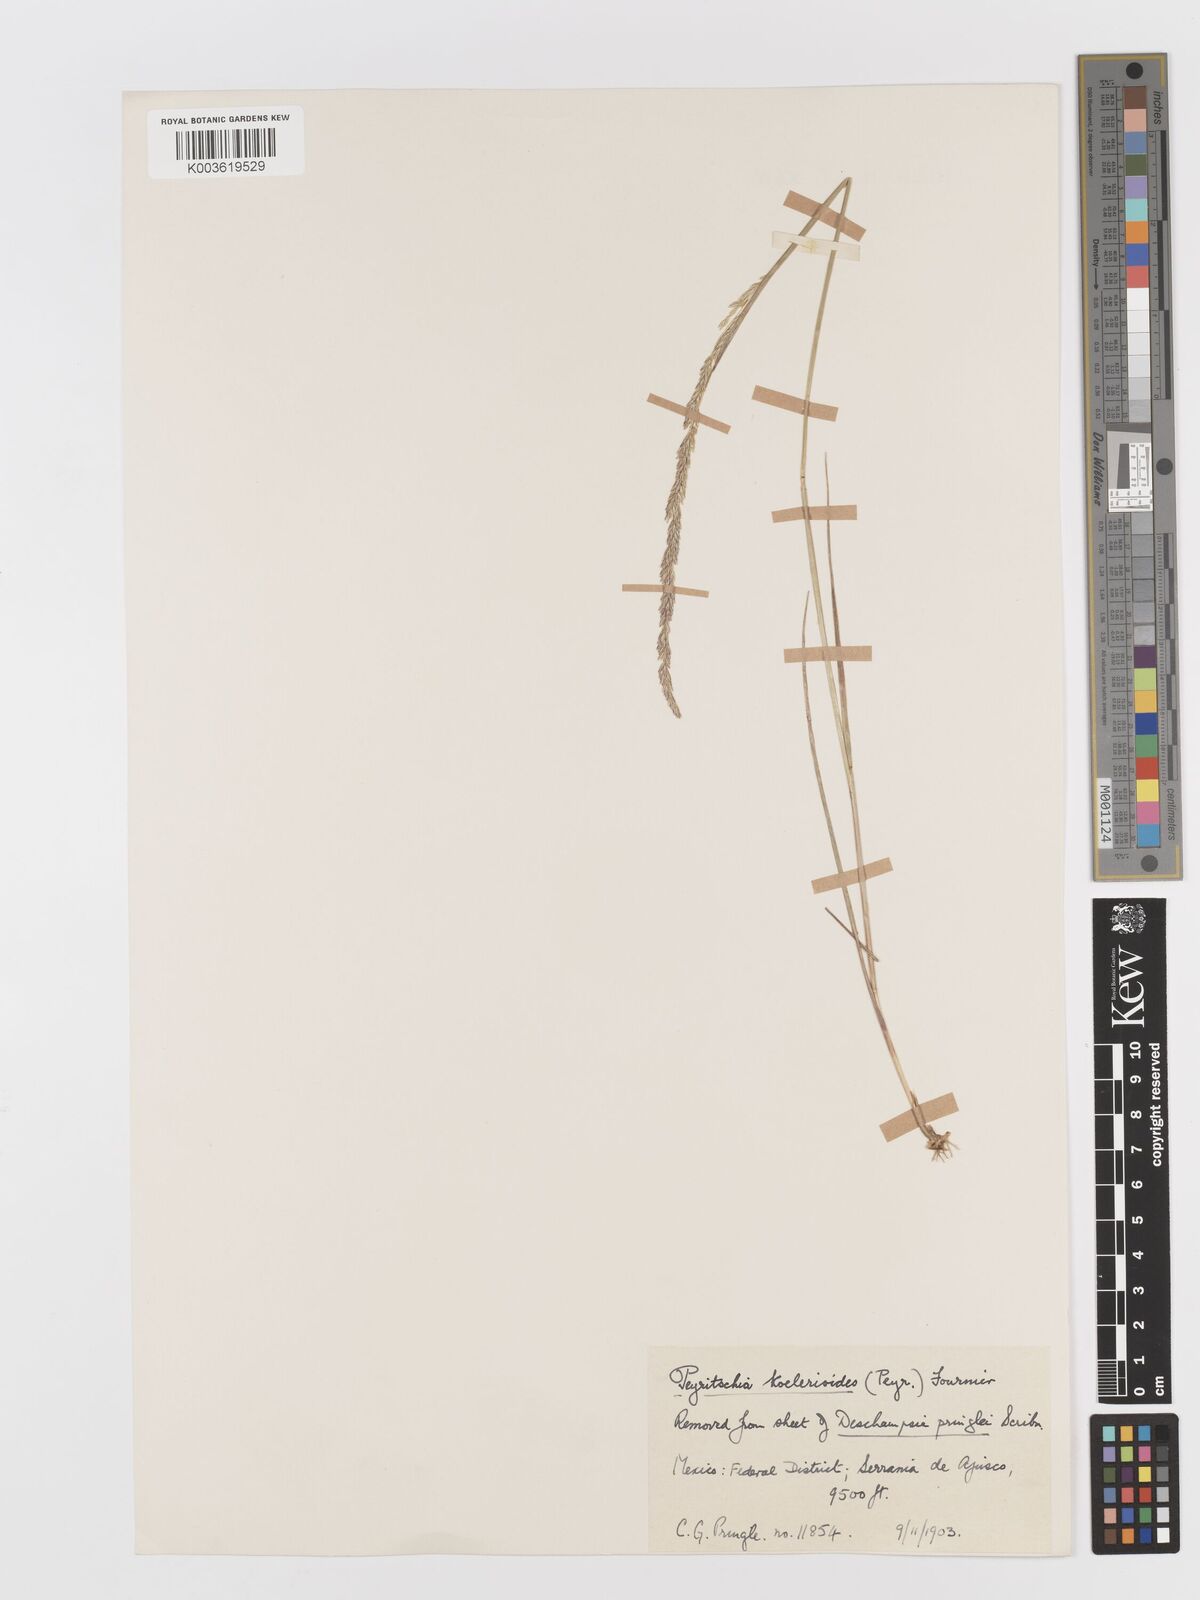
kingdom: Plantae
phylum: Tracheophyta
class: Liliopsida
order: Poales
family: Poaceae
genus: Peyritschia
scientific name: Peyritschia koelerioides
